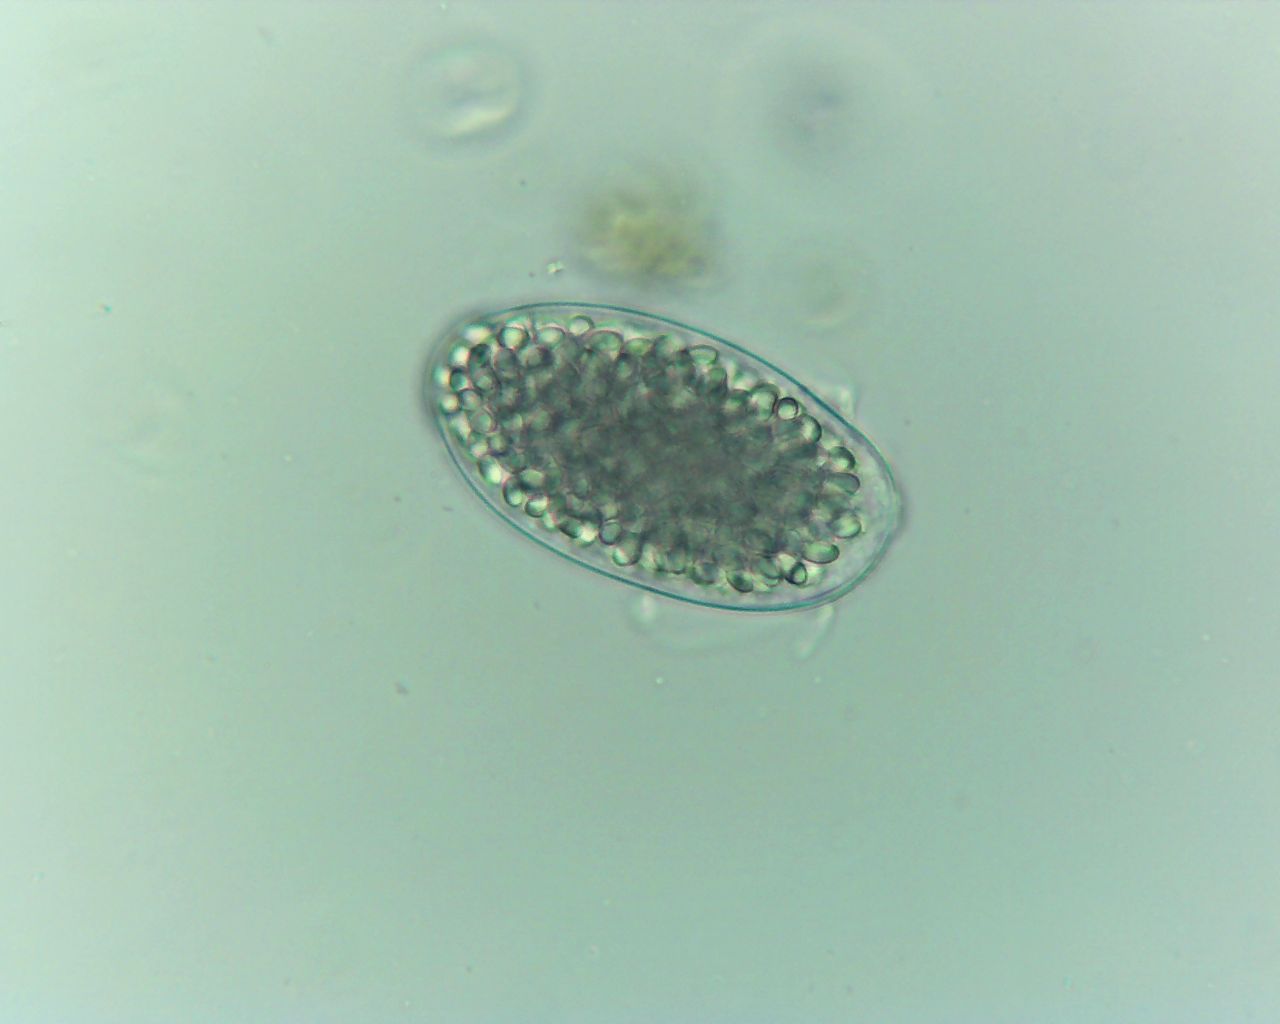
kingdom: Fungi
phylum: Ascomycota
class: Leotiomycetes
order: Thelebolales
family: Thelebolaceae
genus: Thelebolus
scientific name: Thelebolus
